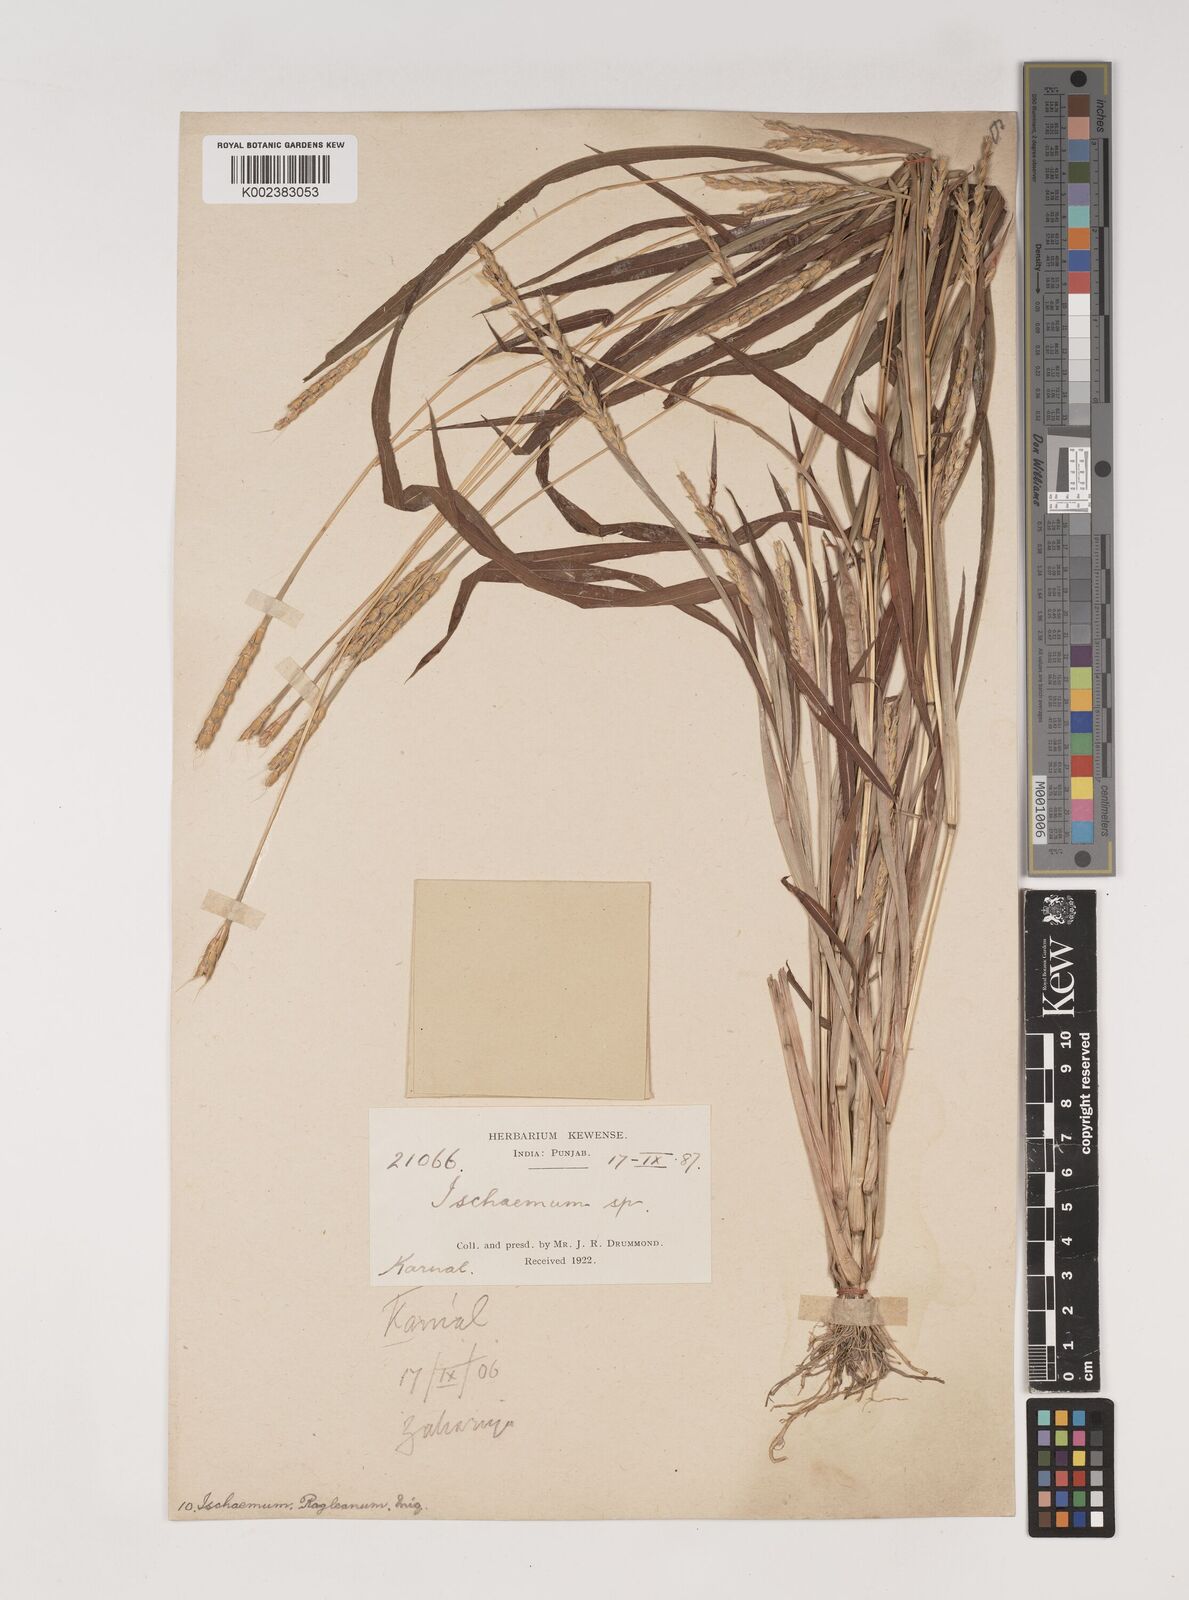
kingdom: Plantae
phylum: Tracheophyta
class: Liliopsida
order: Poales
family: Poaceae
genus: Ischaemum
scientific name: Ischaemum rugosum
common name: Saramatta grass
